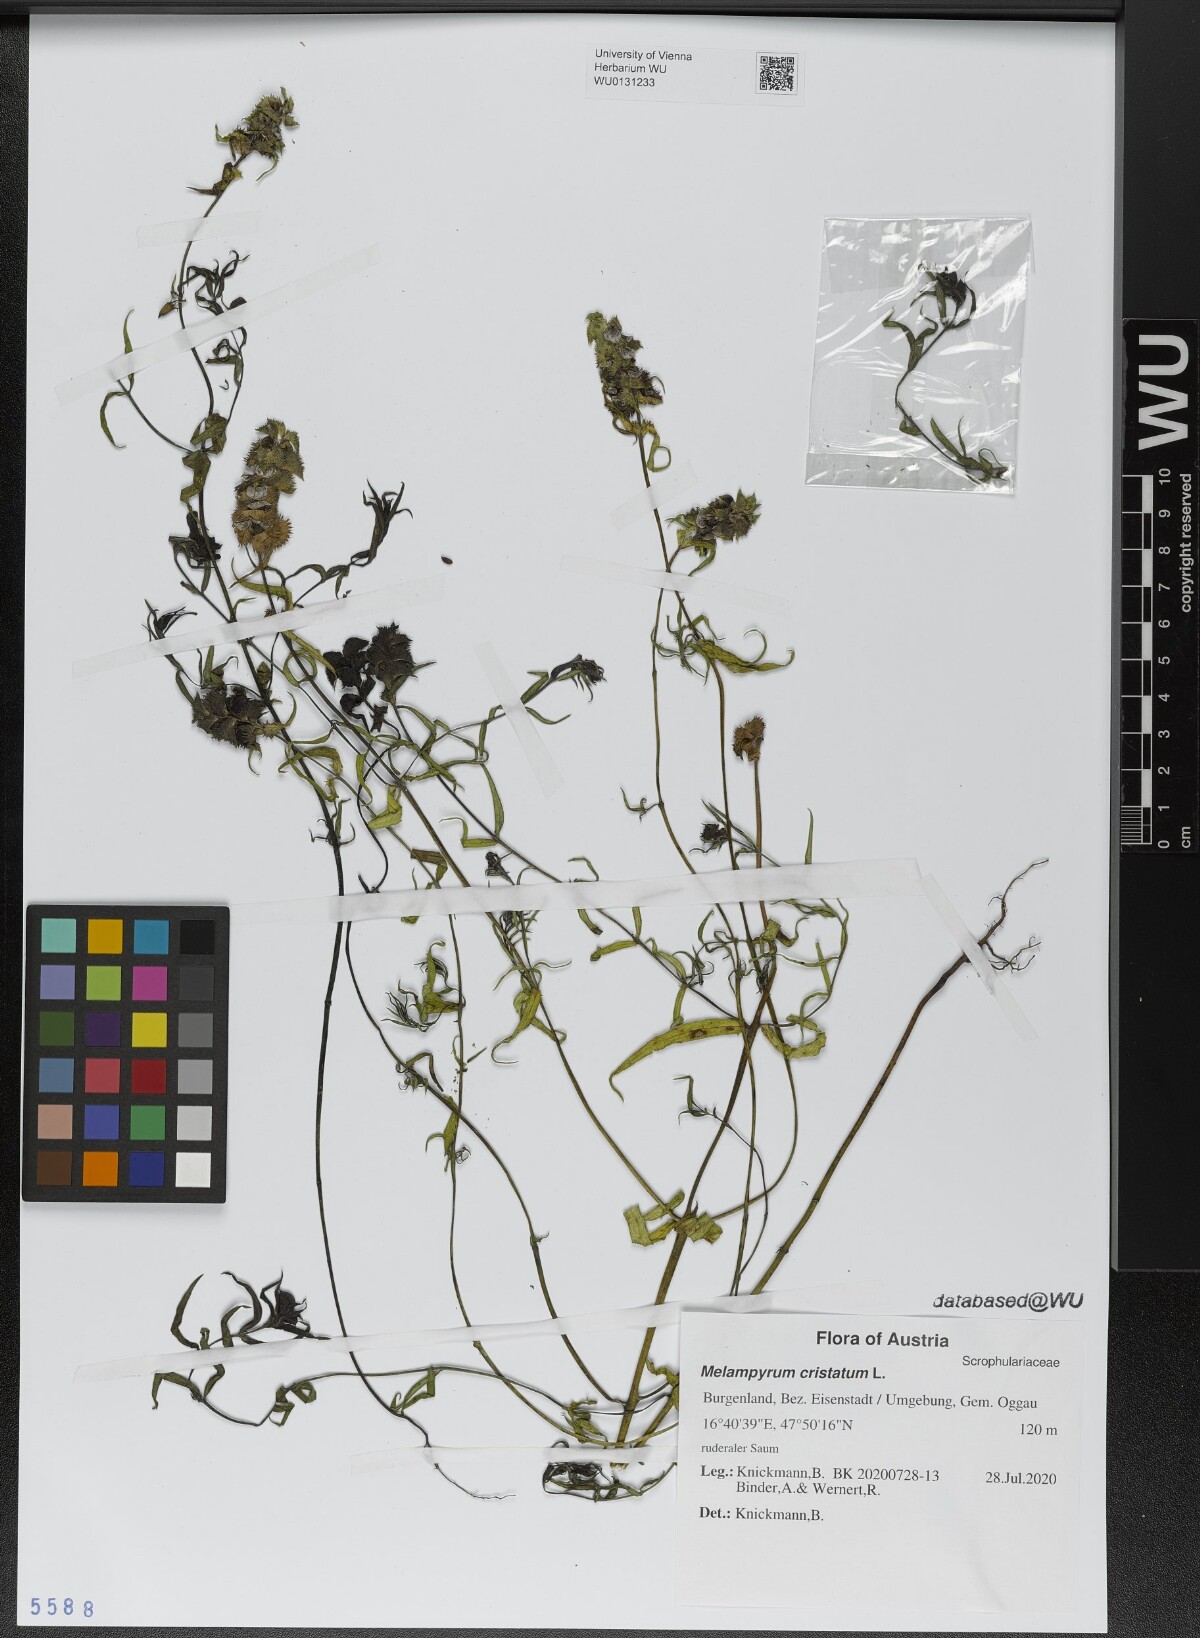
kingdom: Plantae
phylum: Tracheophyta
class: Magnoliopsida
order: Lamiales
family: Orobanchaceae
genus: Melampyrum
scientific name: Melampyrum cristatum
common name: Crested cow-wheat
